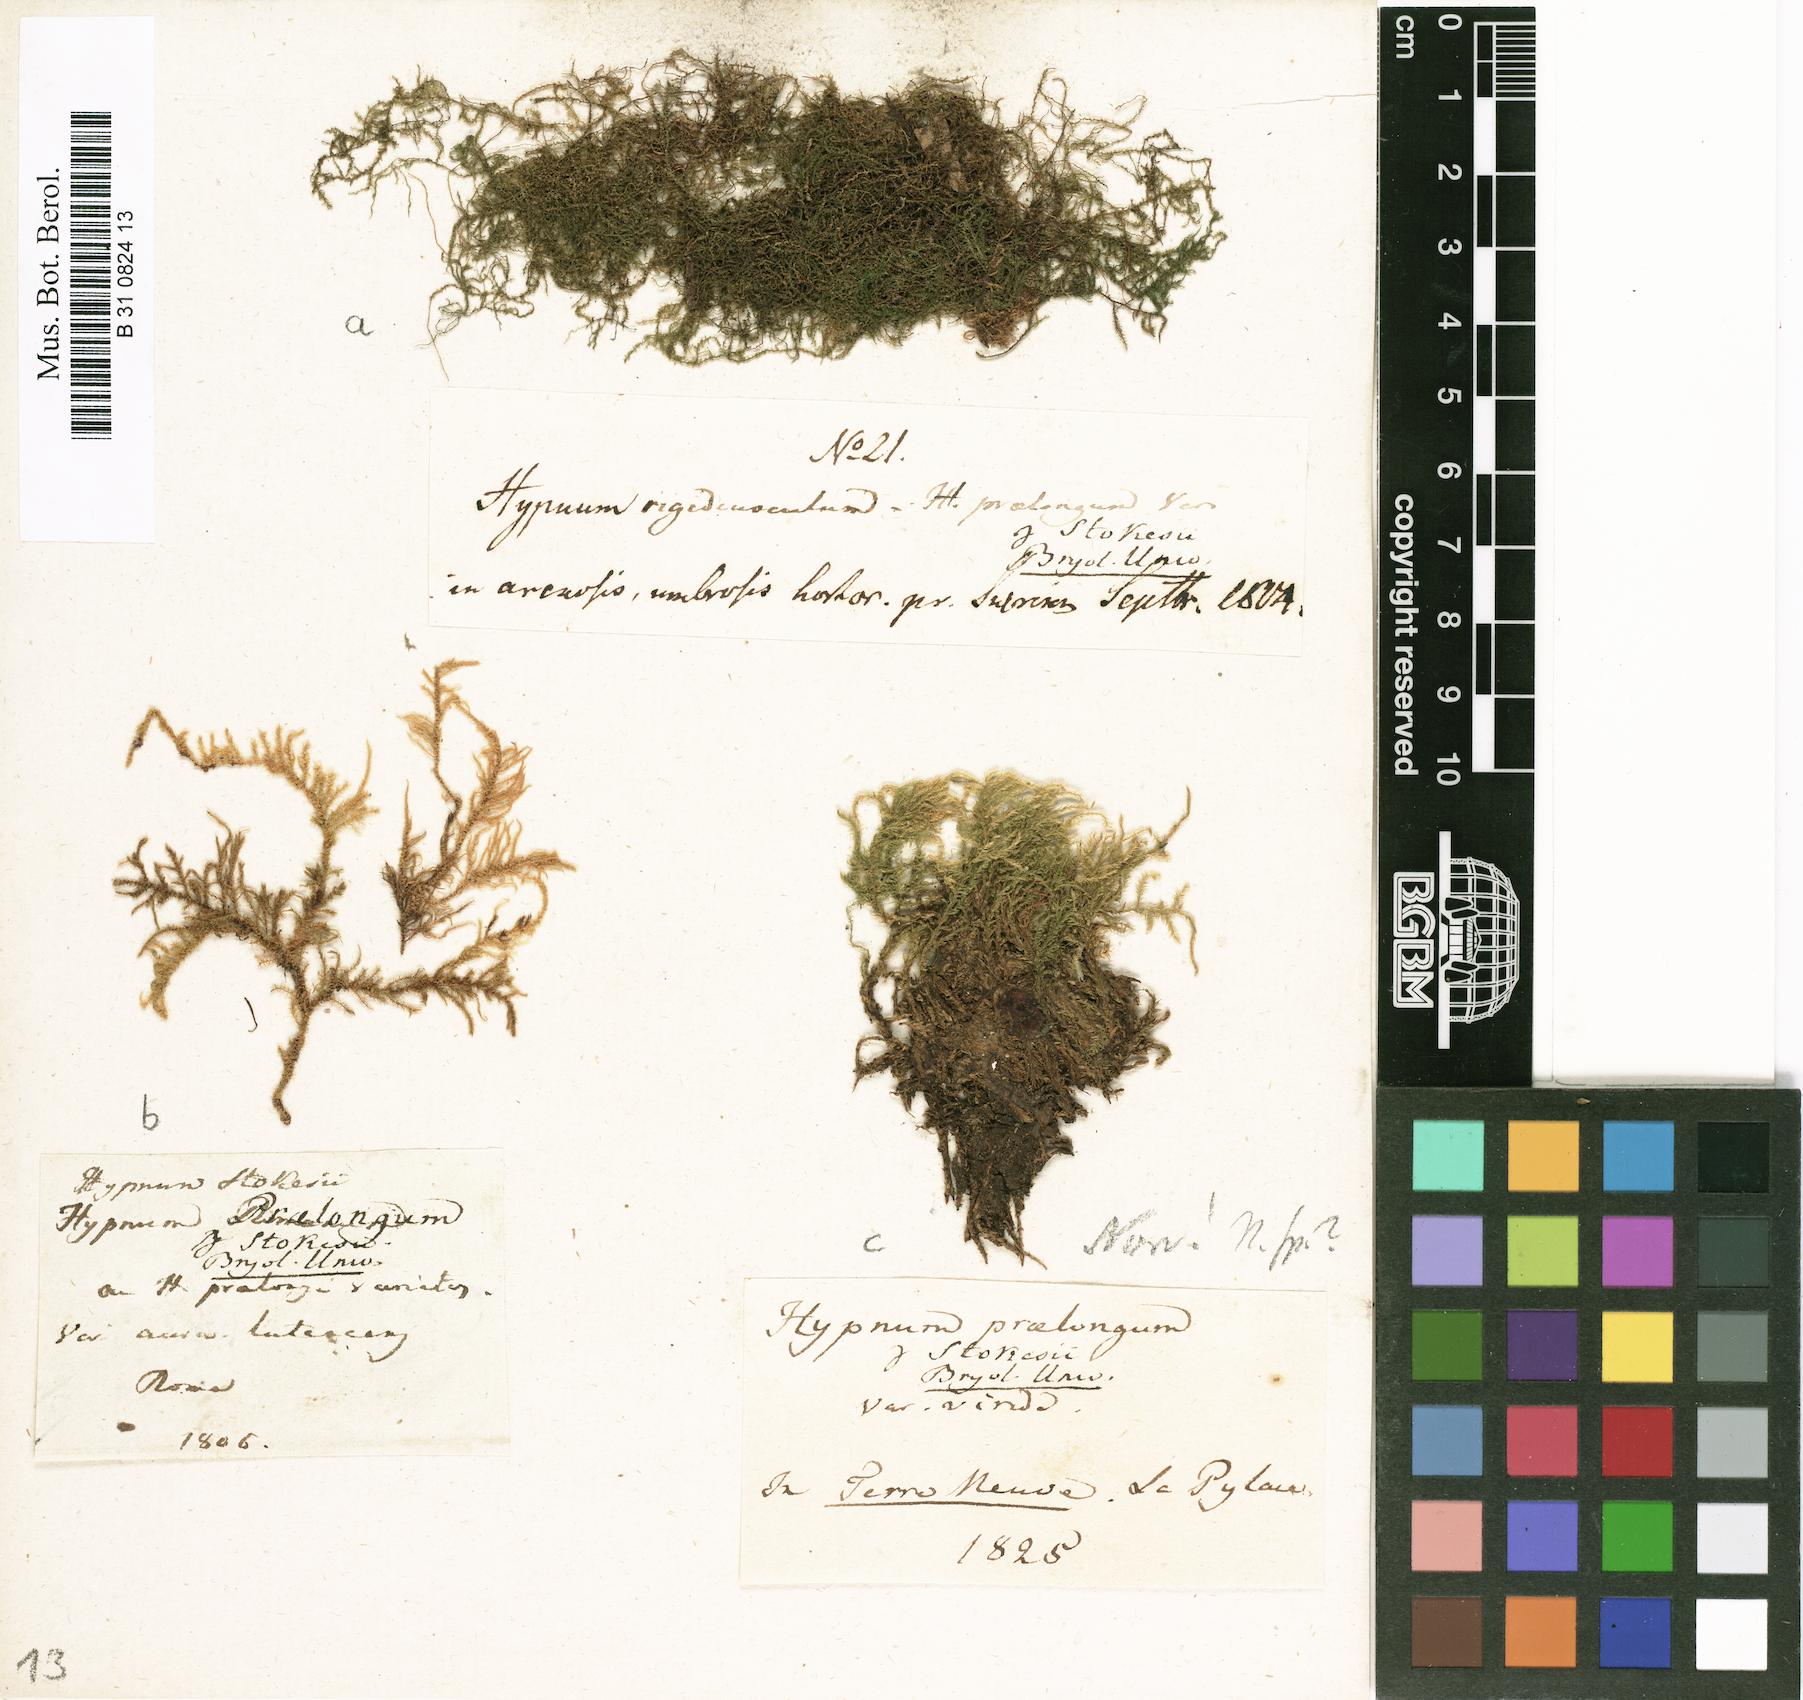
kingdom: Plantae
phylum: Bryophyta
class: Bryopsida
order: Hypnales
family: Brachytheciaceae
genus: Kindbergia
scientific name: Kindbergia praelonga
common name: Slender beaked moss
